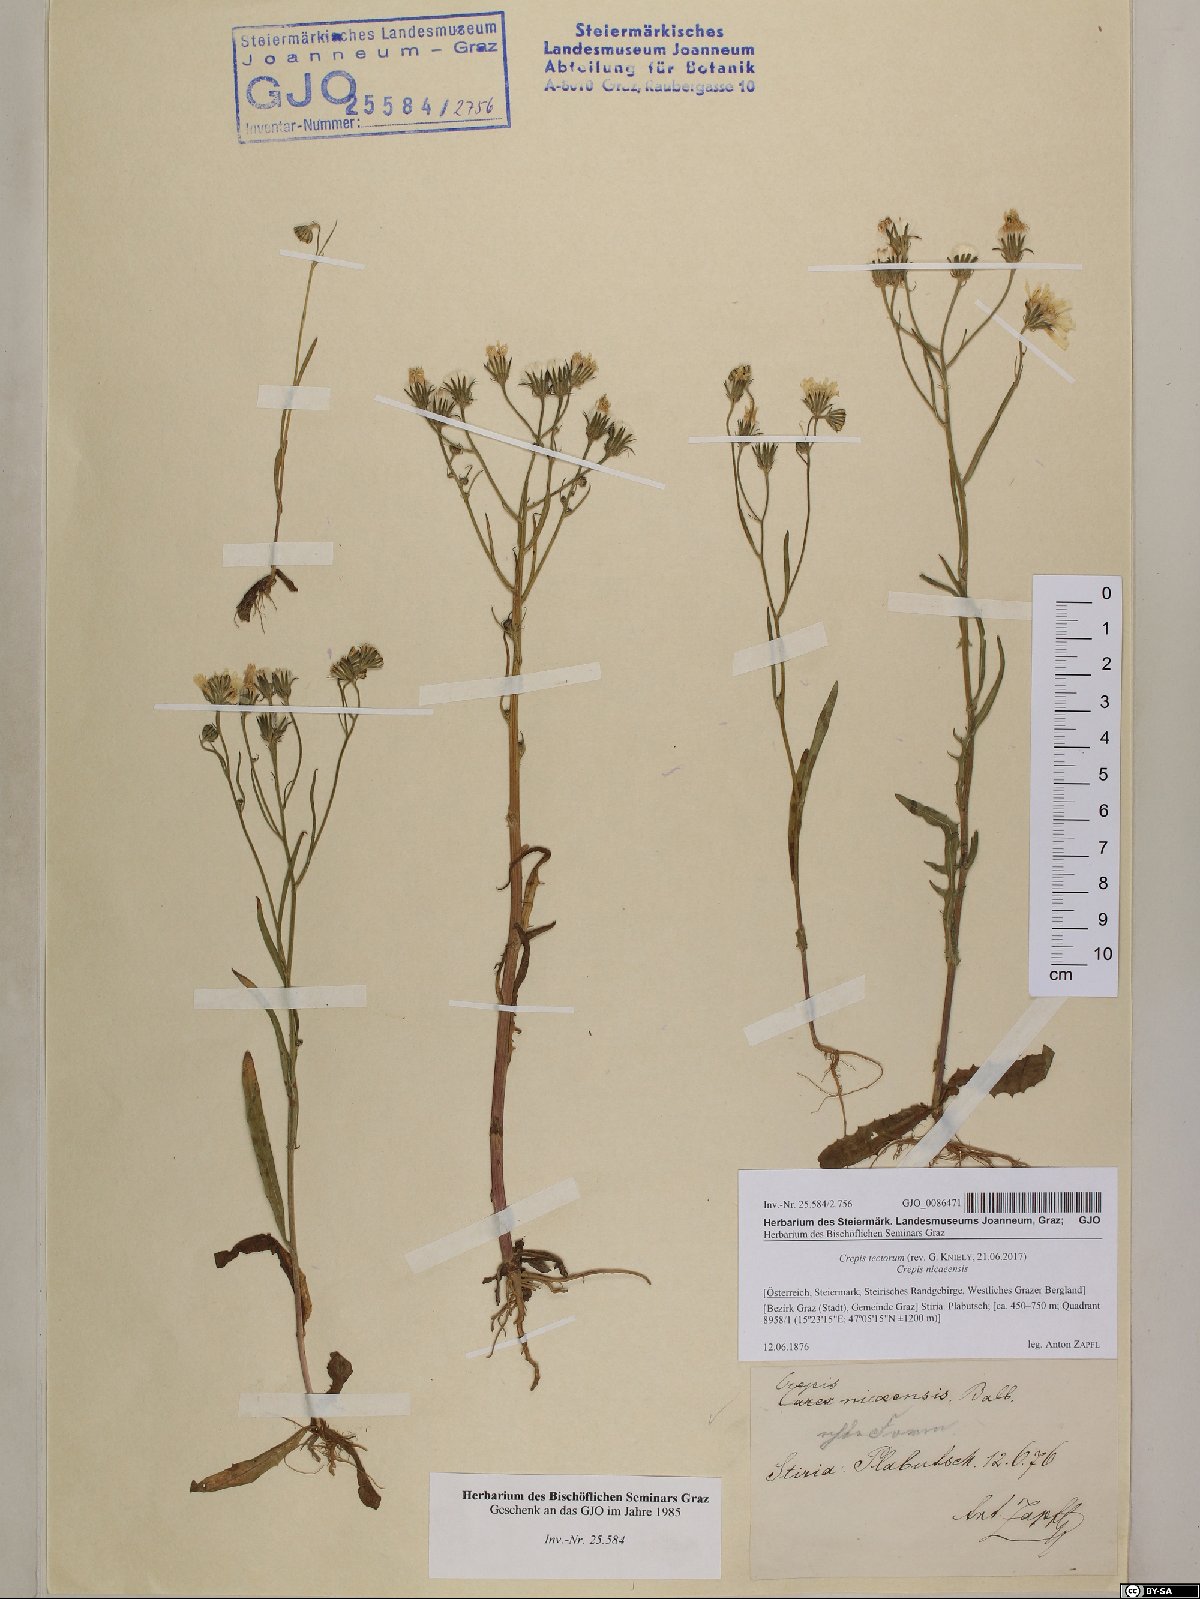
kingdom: Plantae
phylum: Tracheophyta
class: Magnoliopsida
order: Asterales
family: Asteraceae
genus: Crepis
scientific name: Crepis tectorum
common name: Narrow-leaved hawk's-beard
